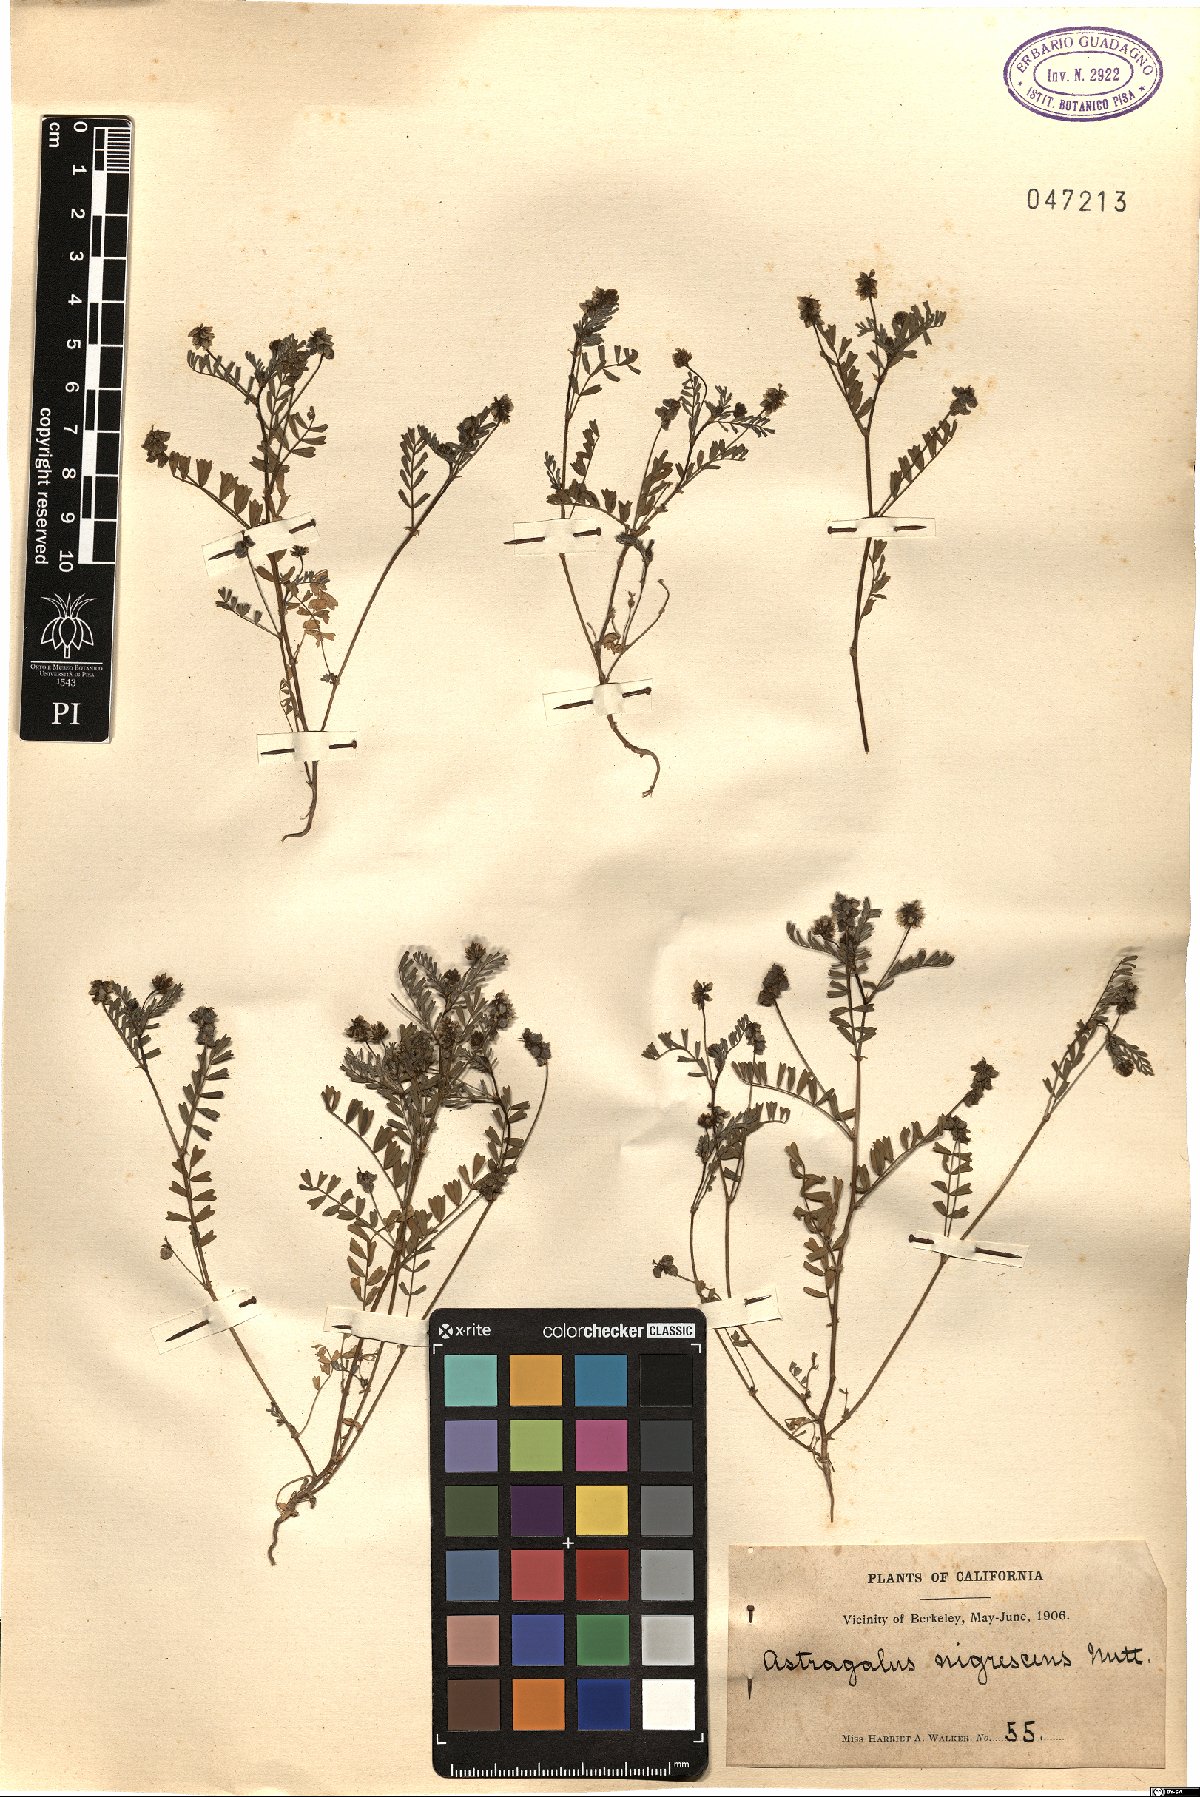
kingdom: Plantae
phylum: Tracheophyta
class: Magnoliopsida
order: Fabales
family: Fabaceae
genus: Astragalus
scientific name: Astragalus gambelianus
